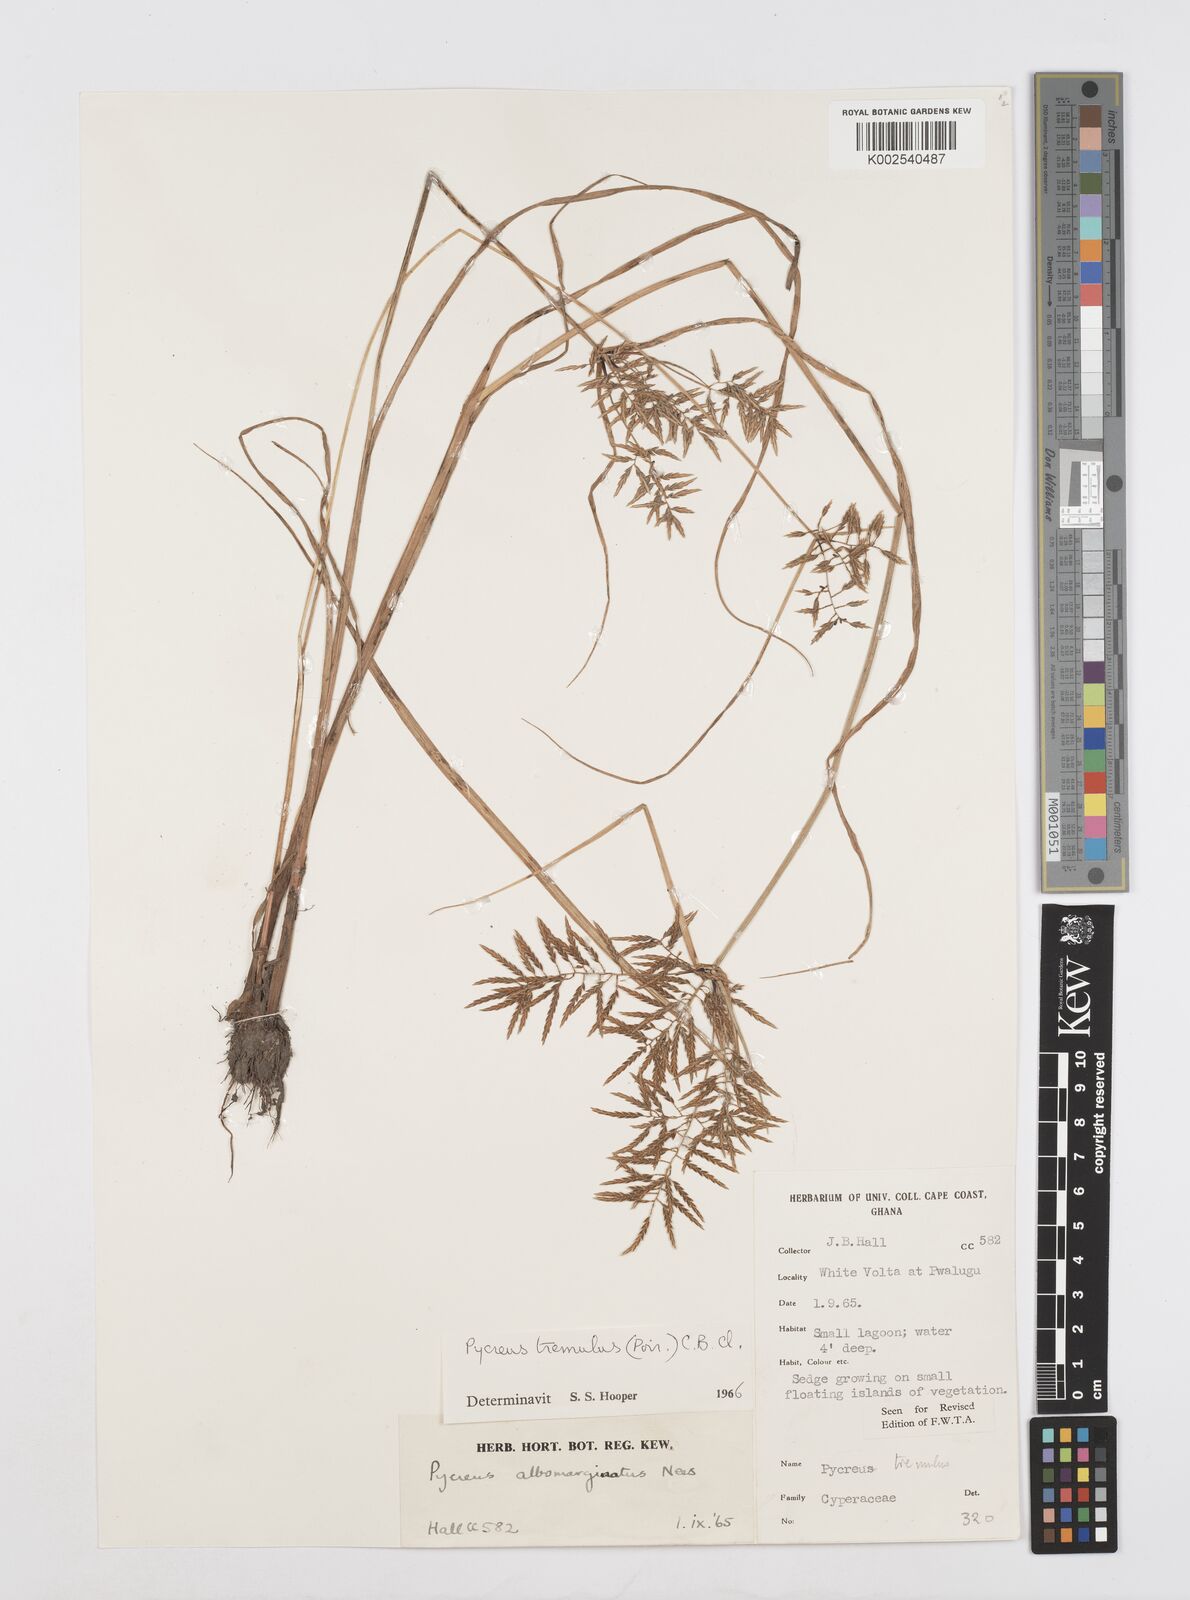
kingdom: Plantae
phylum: Tracheophyta
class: Liliopsida
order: Poales
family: Cyperaceae
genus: Cyperus
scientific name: Cyperus macrostachyos
